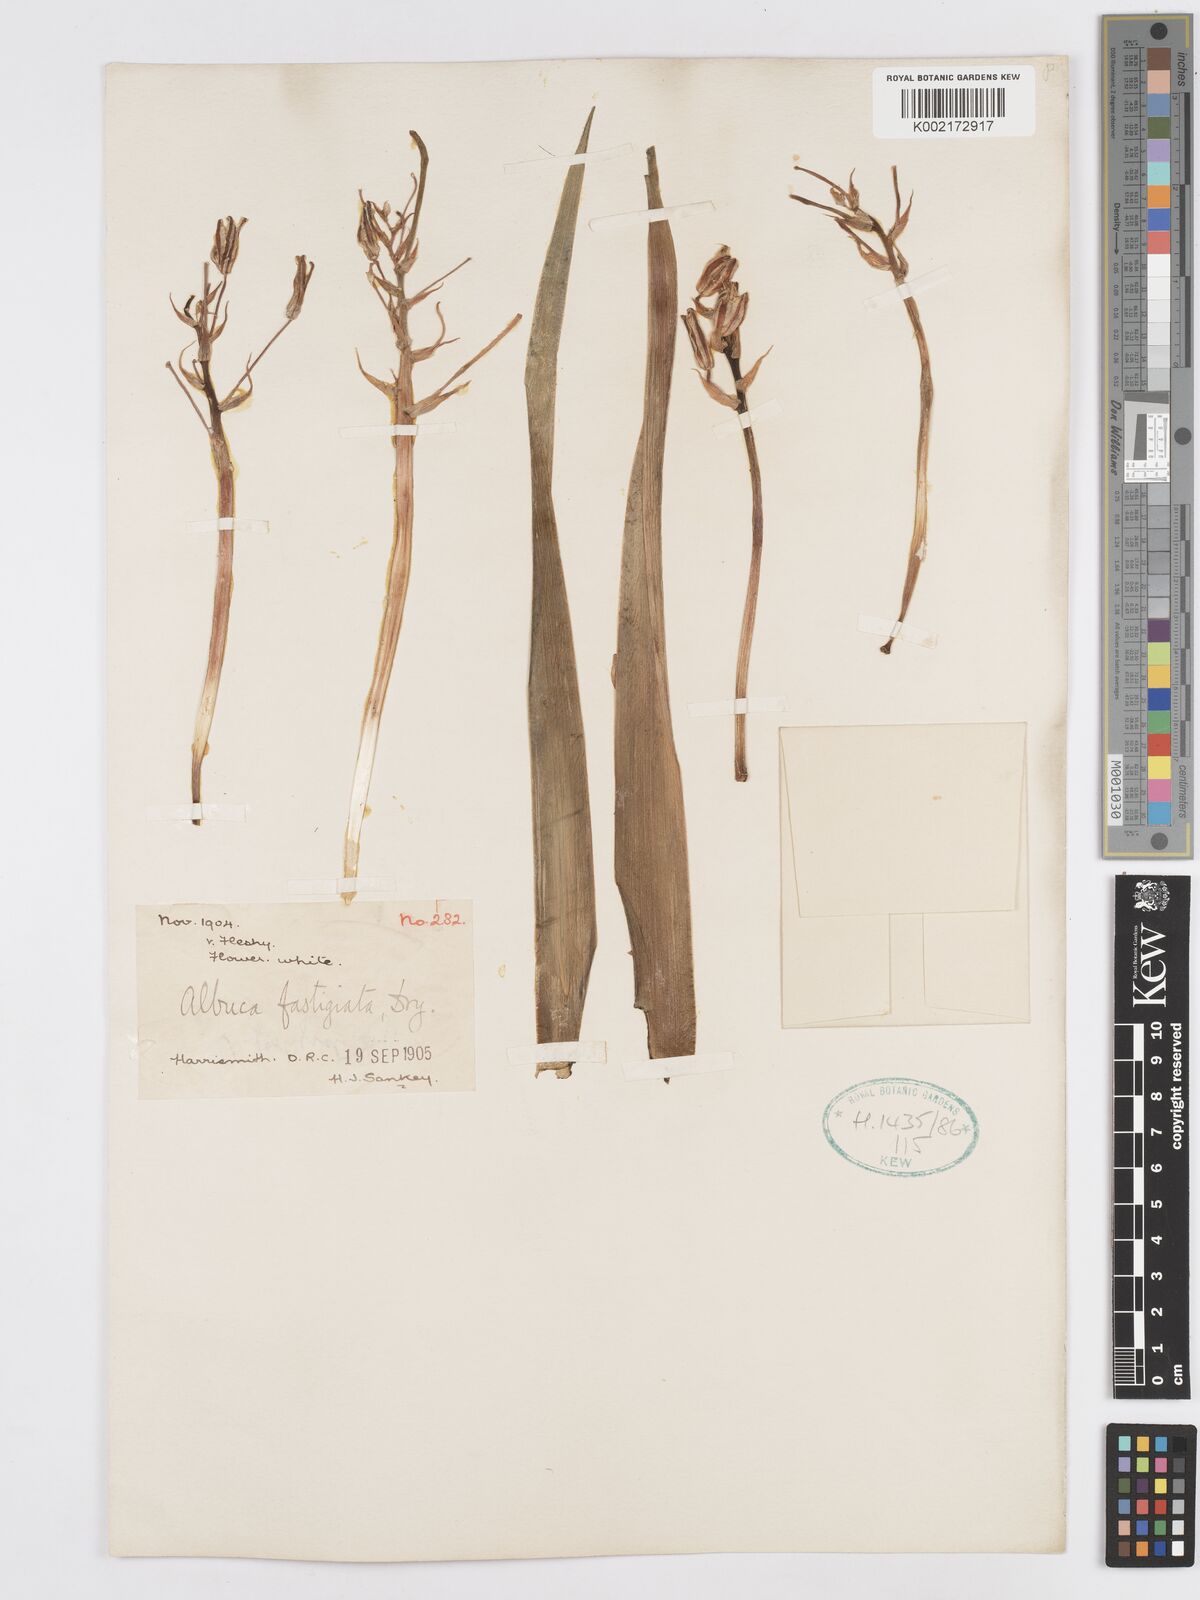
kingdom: Plantae
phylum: Tracheophyta
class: Liliopsida
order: Asparagales
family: Asparagaceae
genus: Albuca
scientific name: Albuca fastigiata
